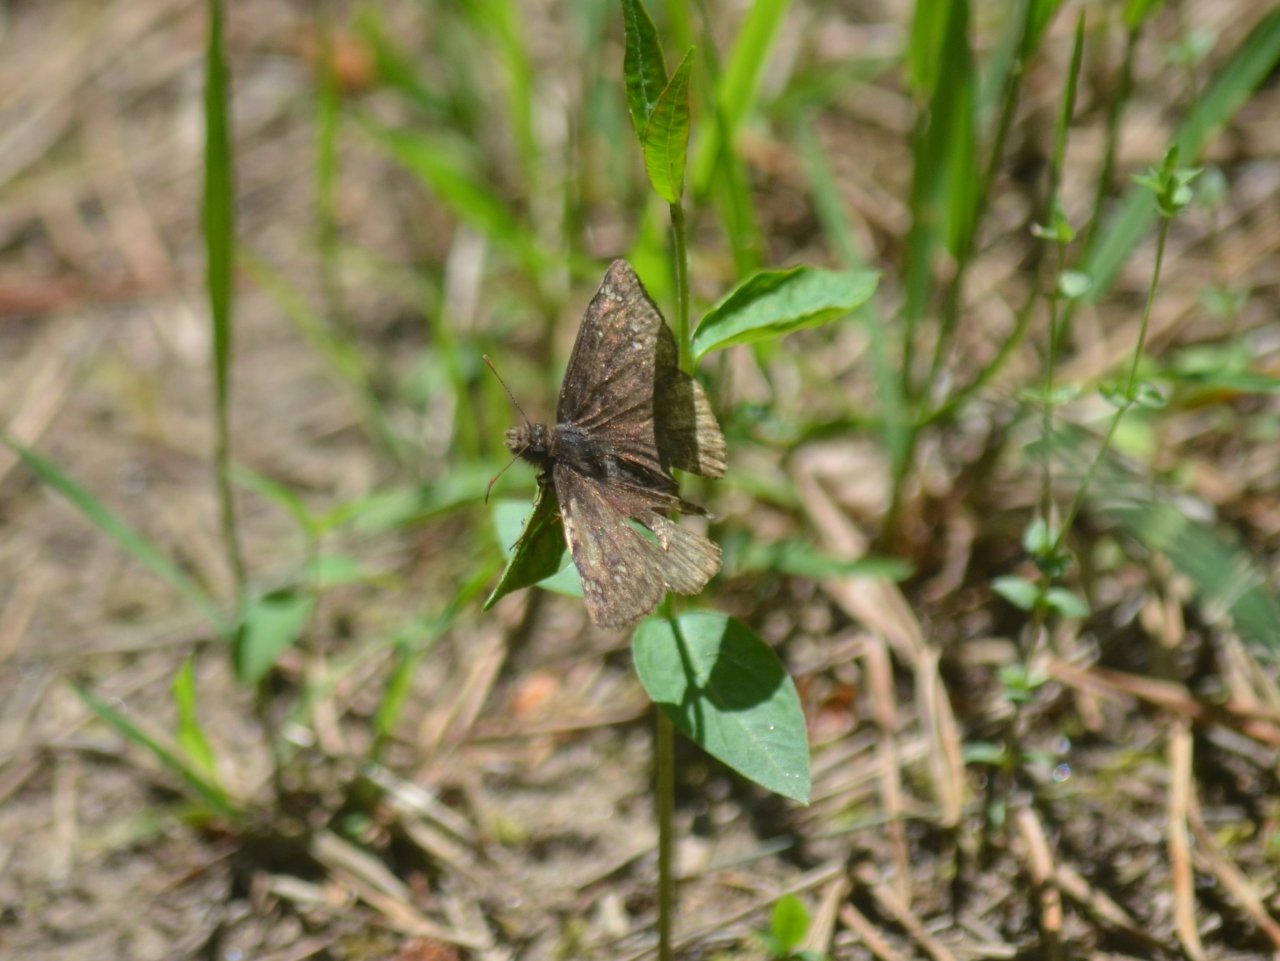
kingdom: Animalia
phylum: Arthropoda
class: Insecta
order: Lepidoptera
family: Hesperiidae
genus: Gesta
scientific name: Gesta
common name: Juvenal's Duskywing
